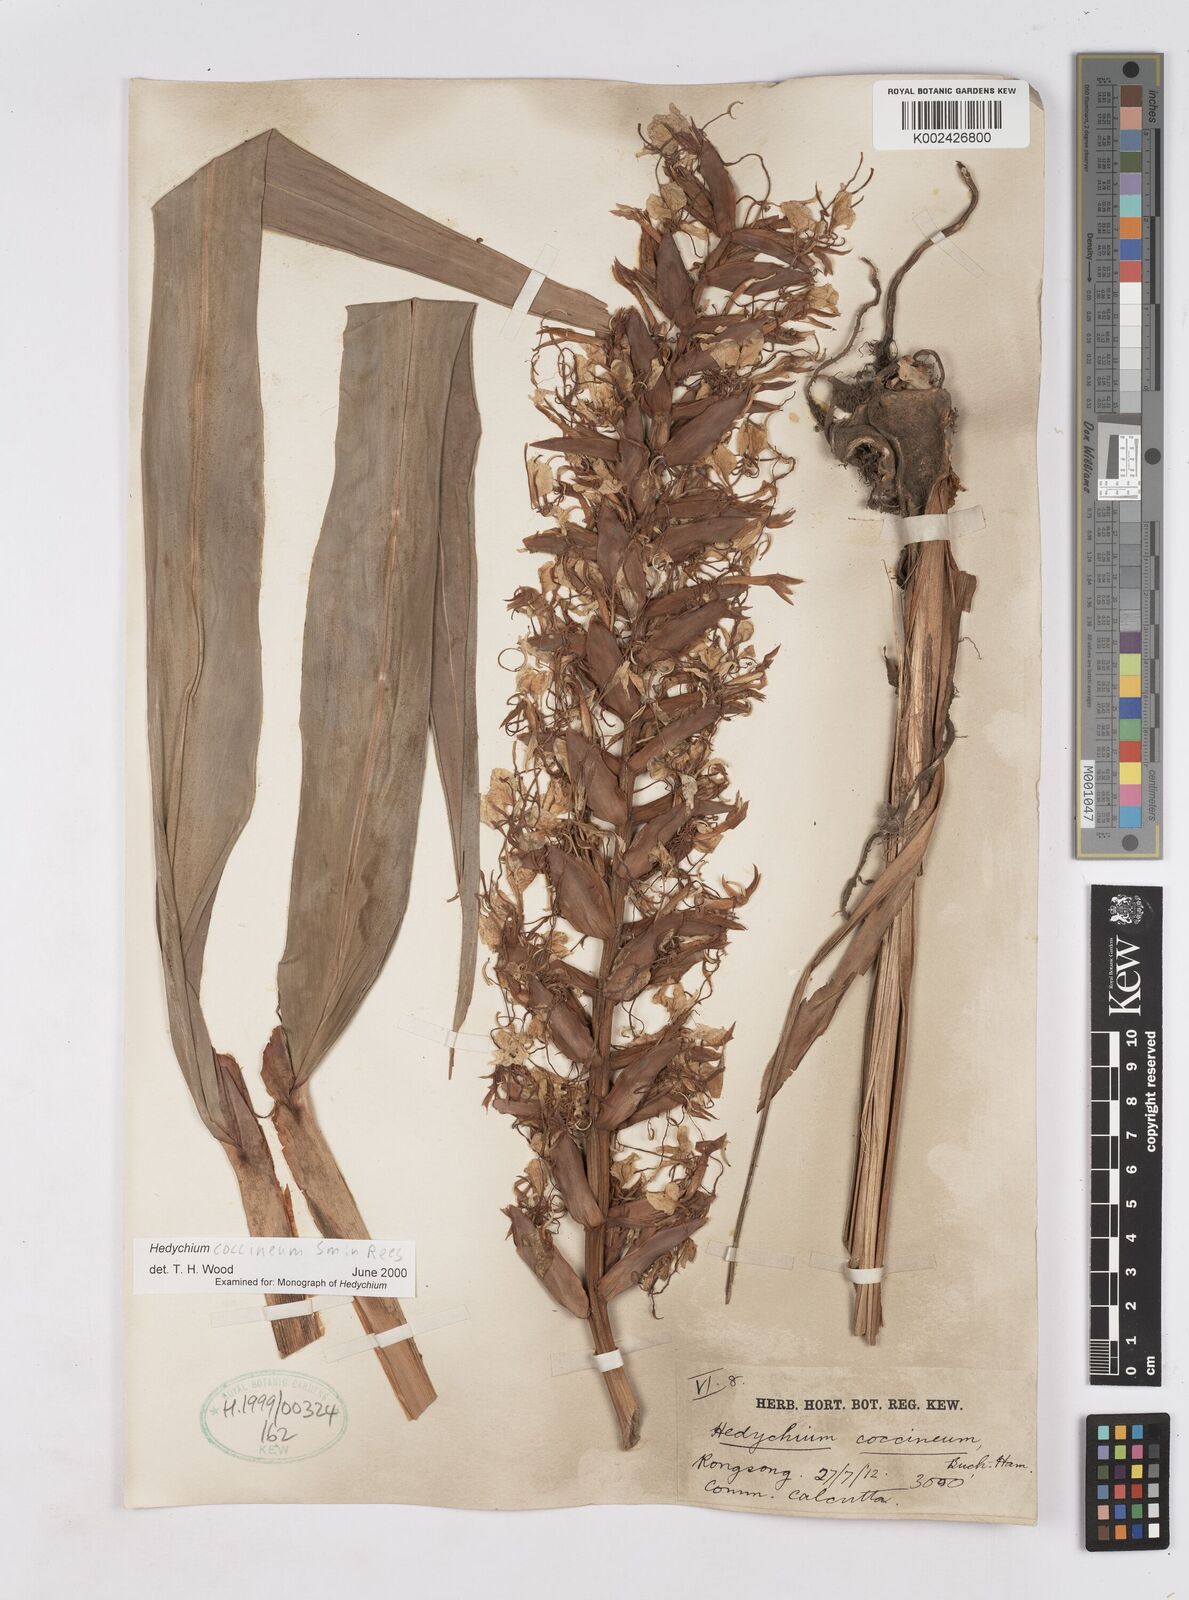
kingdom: Plantae
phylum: Tracheophyta
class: Liliopsida
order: Zingiberales
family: Zingiberaceae
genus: Hedychium
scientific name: Hedychium coccineum
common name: Red ginger-lily
